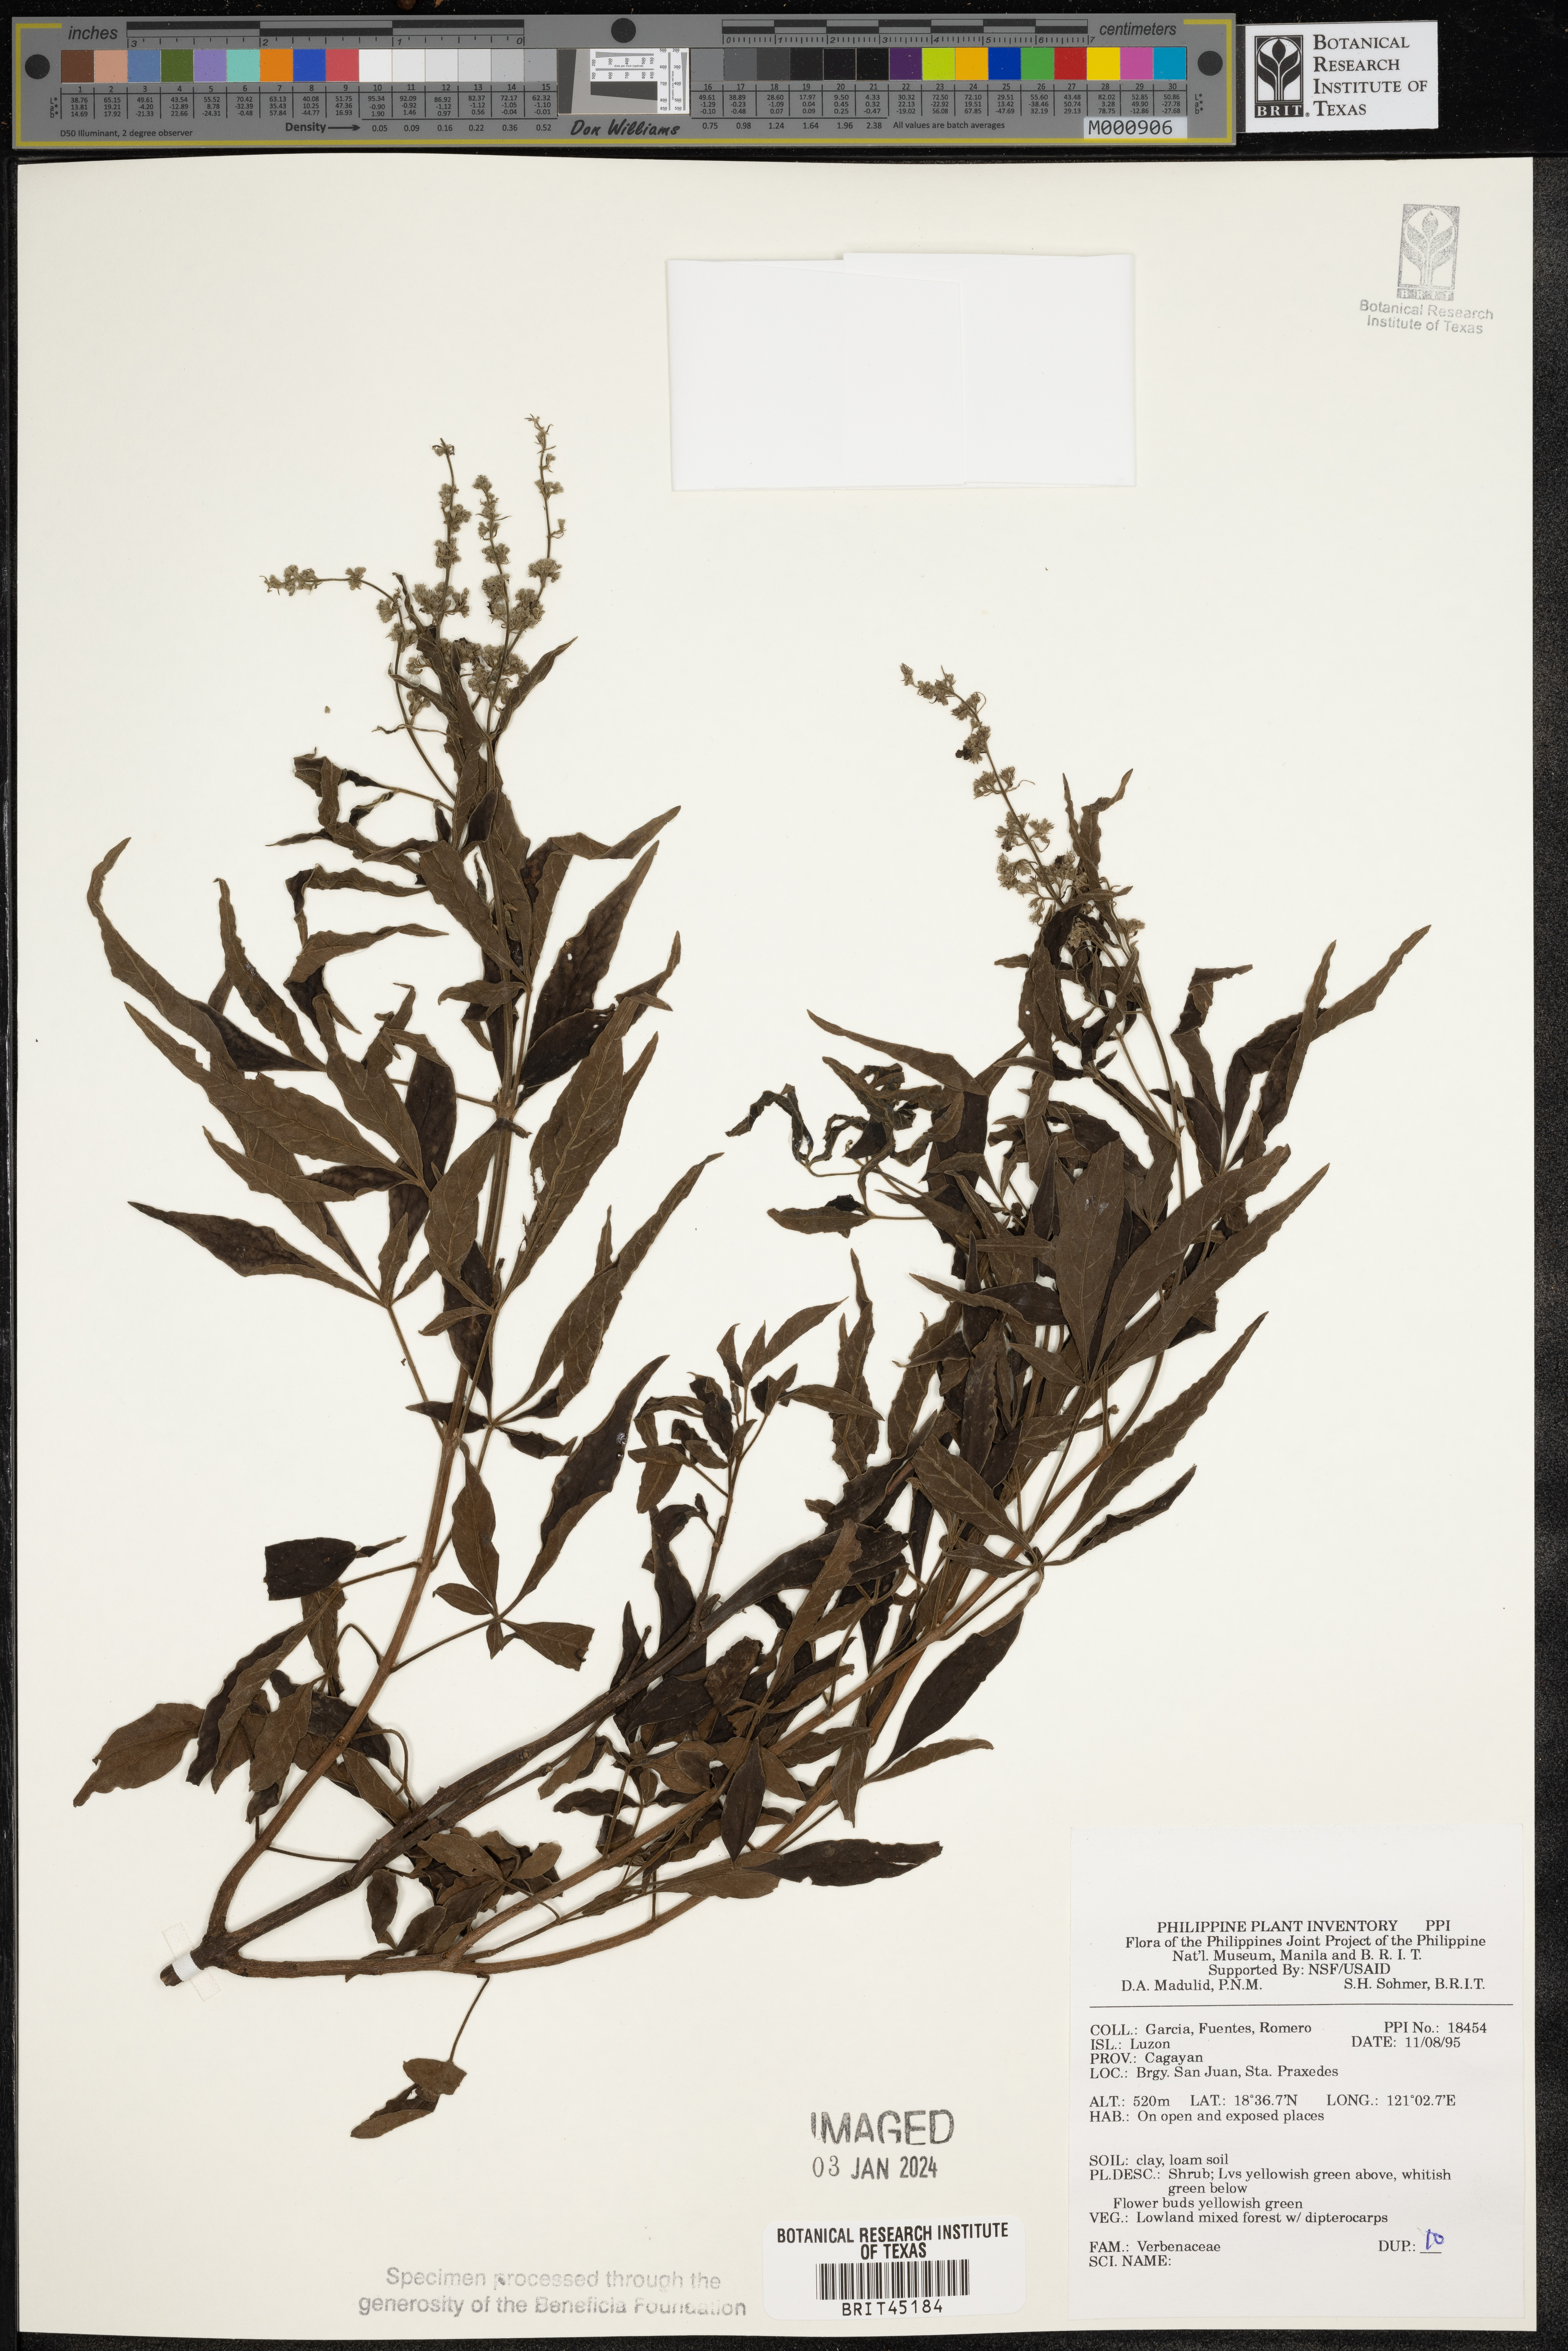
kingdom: Plantae
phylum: Tracheophyta
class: Magnoliopsida
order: Lamiales
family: Verbenaceae
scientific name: Verbenaceae
